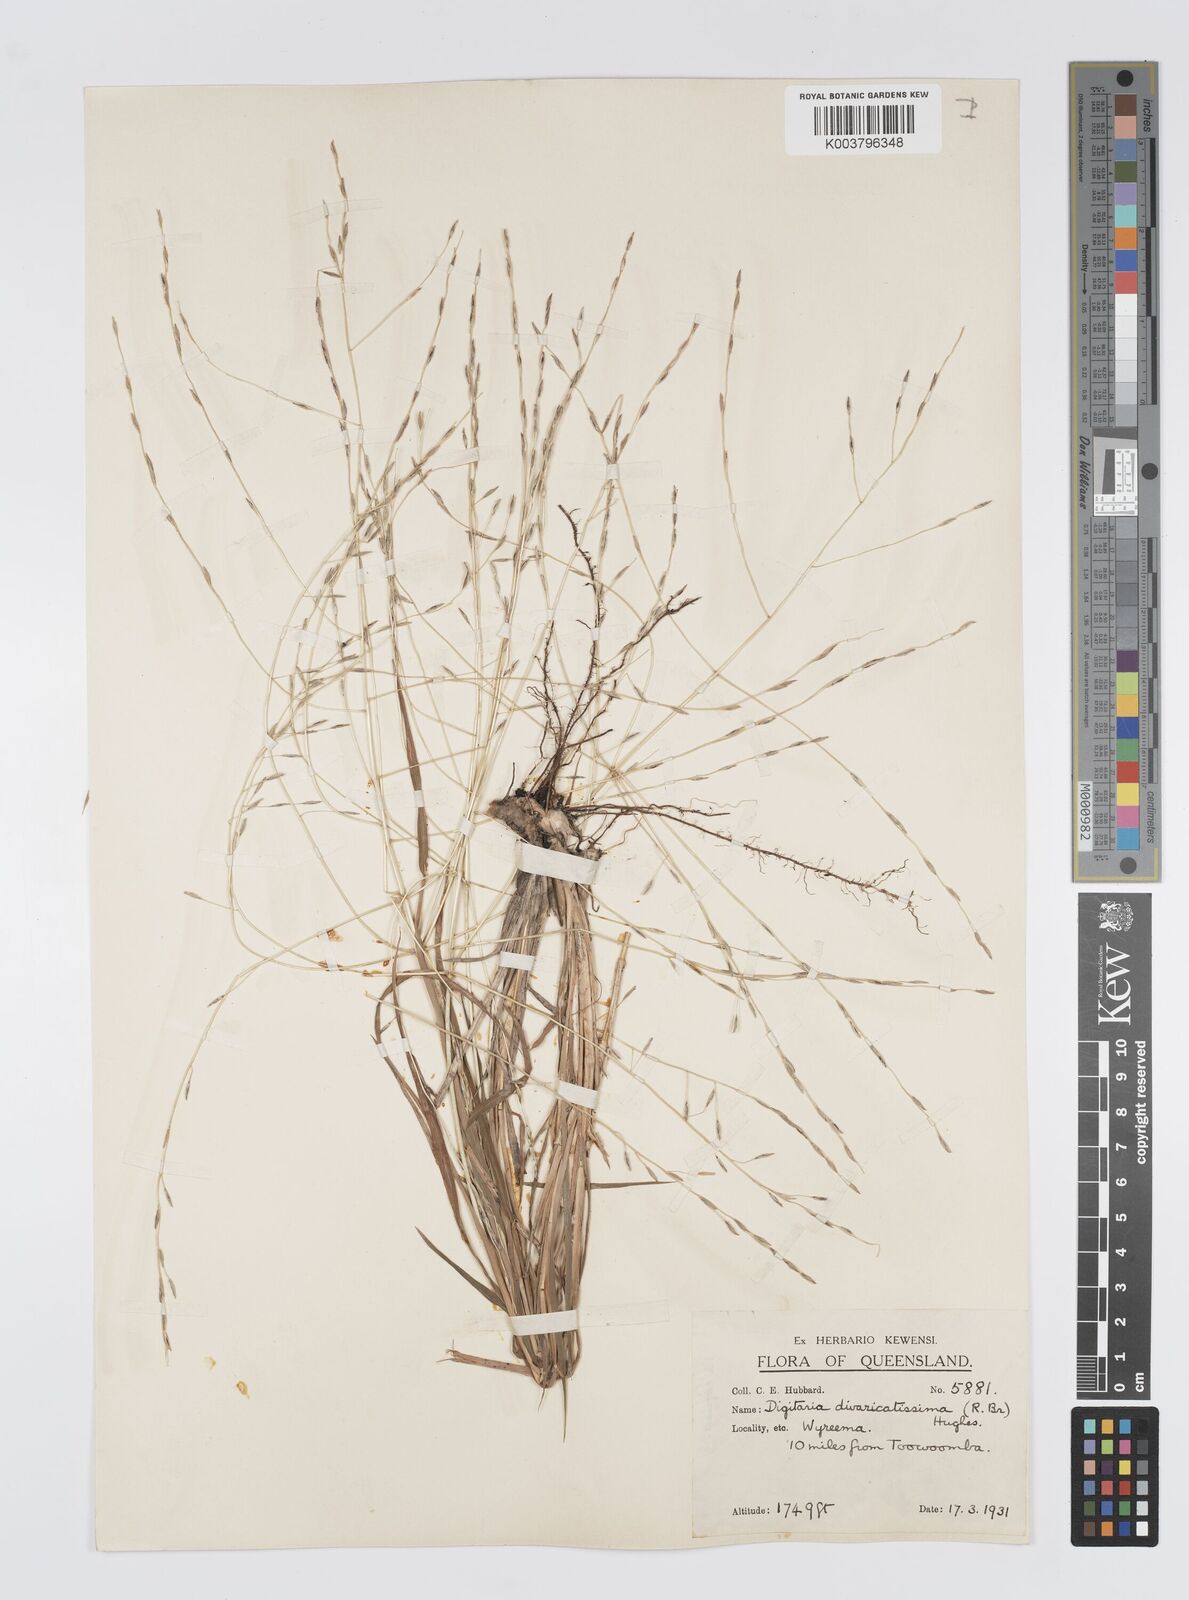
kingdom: Plantae
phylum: Tracheophyta
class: Liliopsida
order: Poales
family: Poaceae
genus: Digitaria
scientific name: Digitaria divaricatissima
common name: Crabgrass
